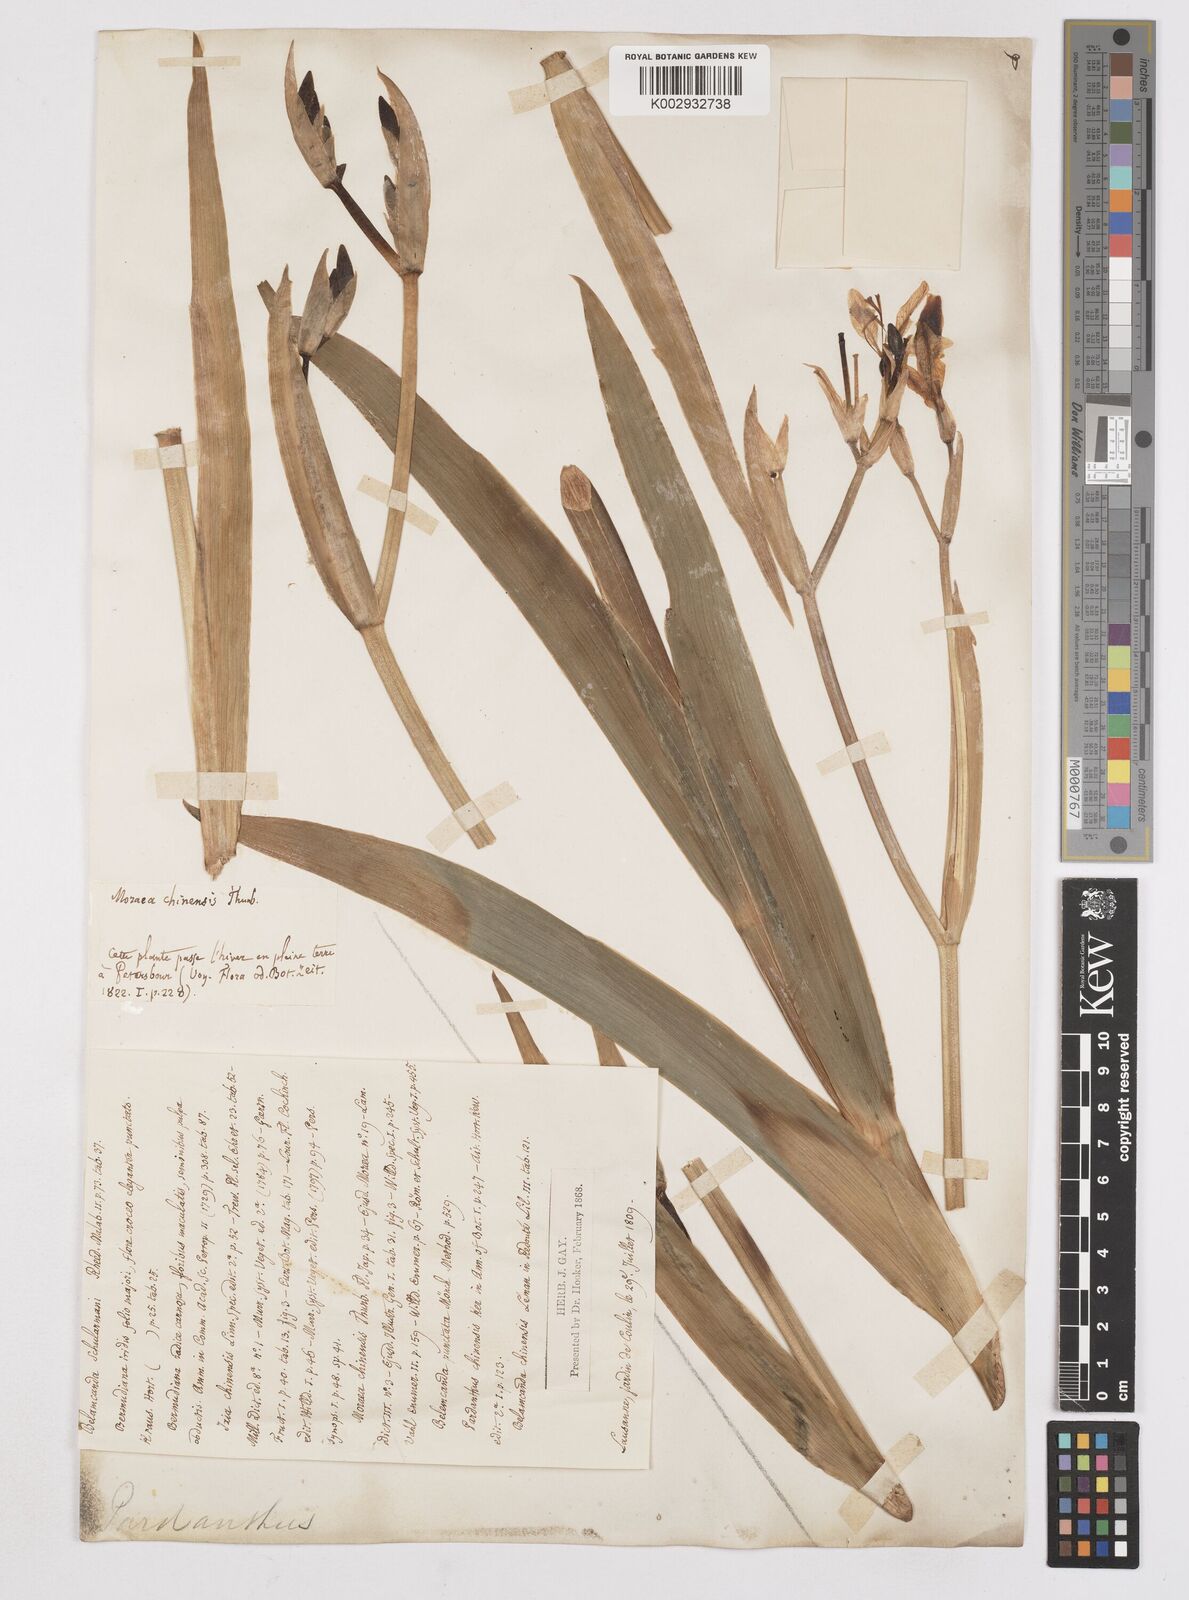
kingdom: Plantae
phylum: Tracheophyta
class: Liliopsida
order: Asparagales
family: Iridaceae
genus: Iris
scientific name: Iris
